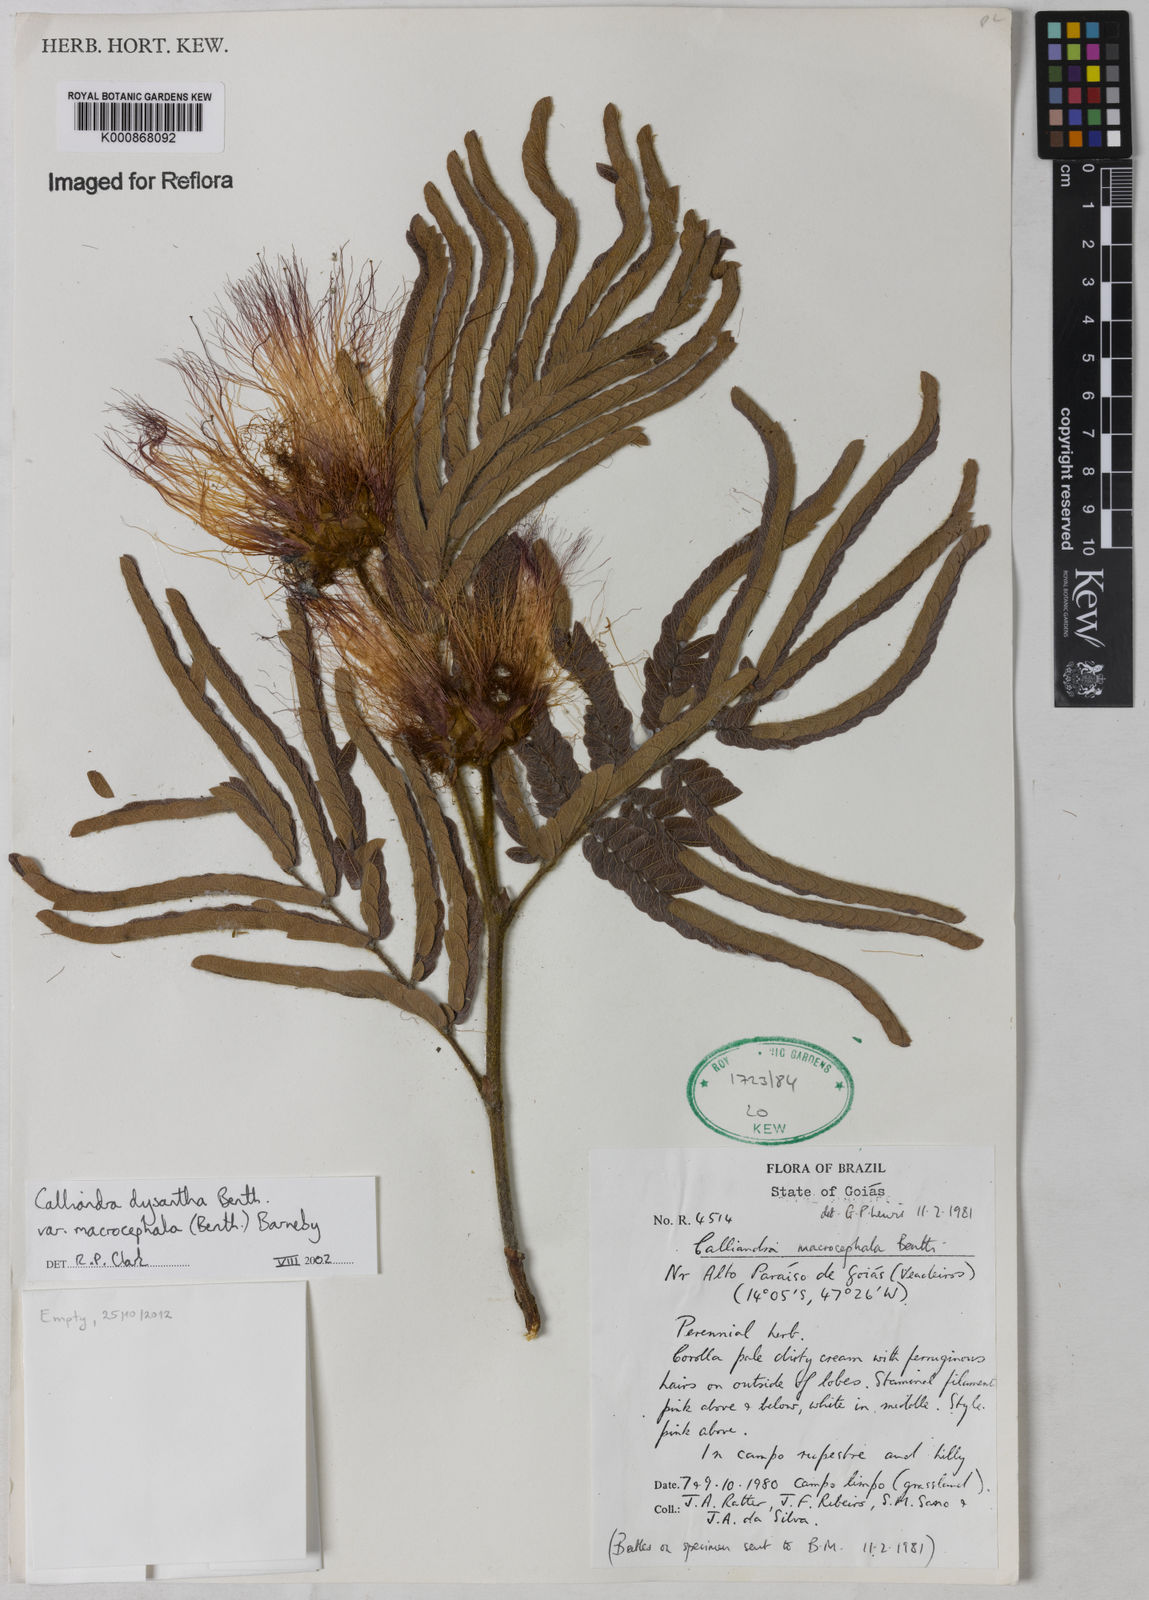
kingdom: Plantae
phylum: Tracheophyta
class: Magnoliopsida
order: Fabales
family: Fabaceae
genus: Calliandra
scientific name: Calliandra dysantha
